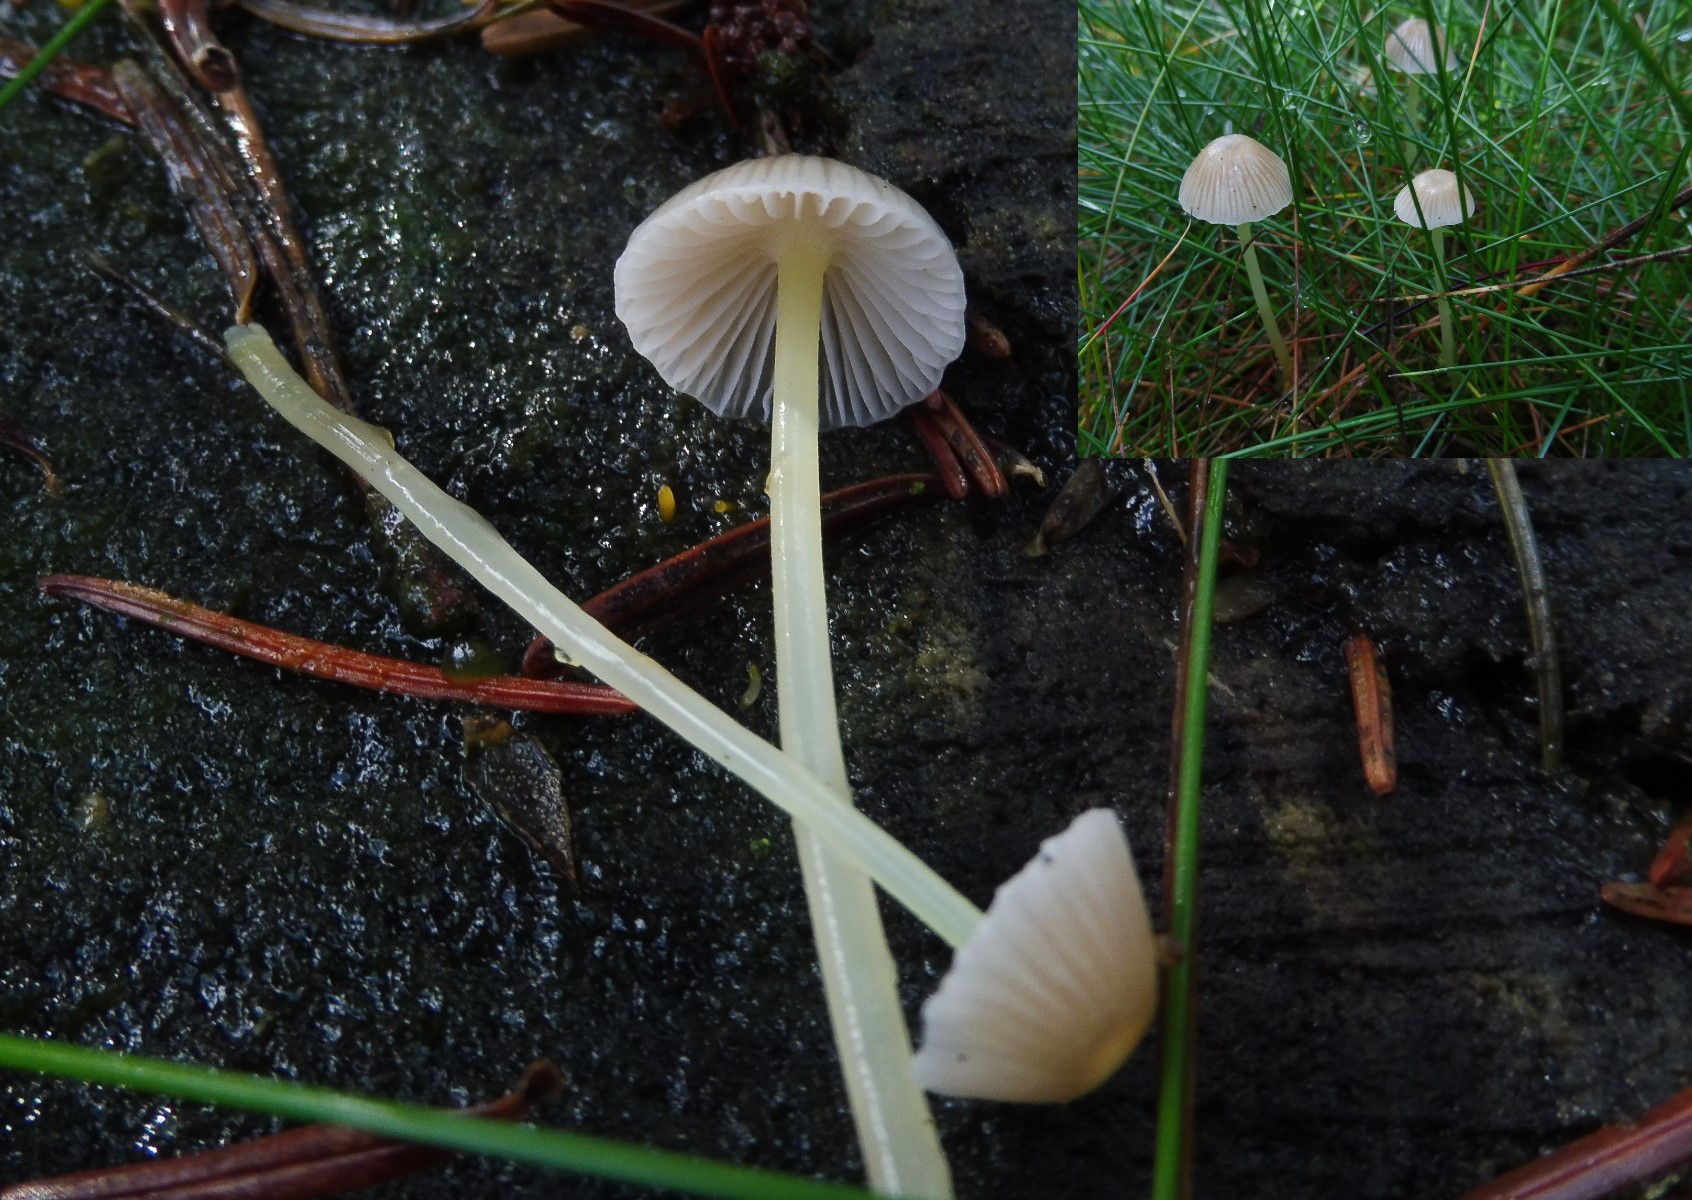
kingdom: Fungi
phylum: Basidiomycota
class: Agaricomycetes
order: Agaricales
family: Mycenaceae
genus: Mycena
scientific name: Mycena epipterygia
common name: gulstokket huesvamp
